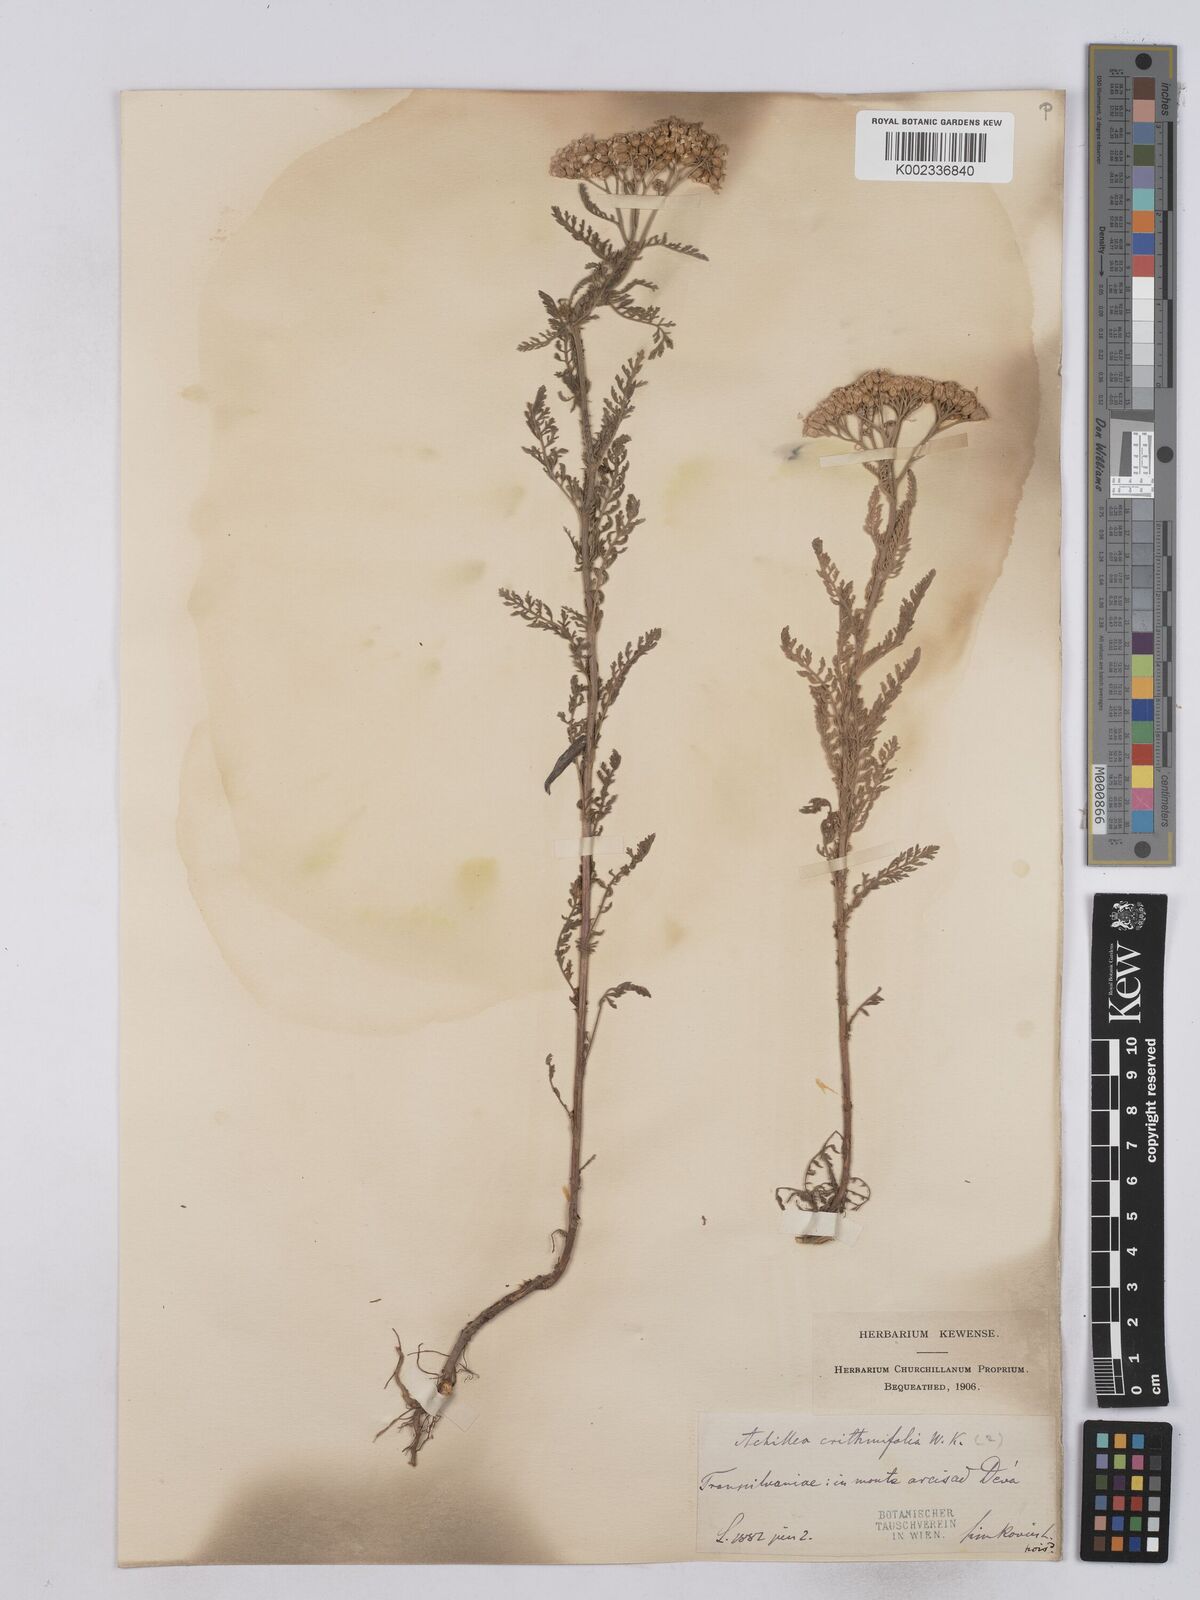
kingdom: Plantae
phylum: Tracheophyta
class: Magnoliopsida
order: Asterales
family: Asteraceae
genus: Achillea
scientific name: Achillea crithmifolia
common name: Yarrow
